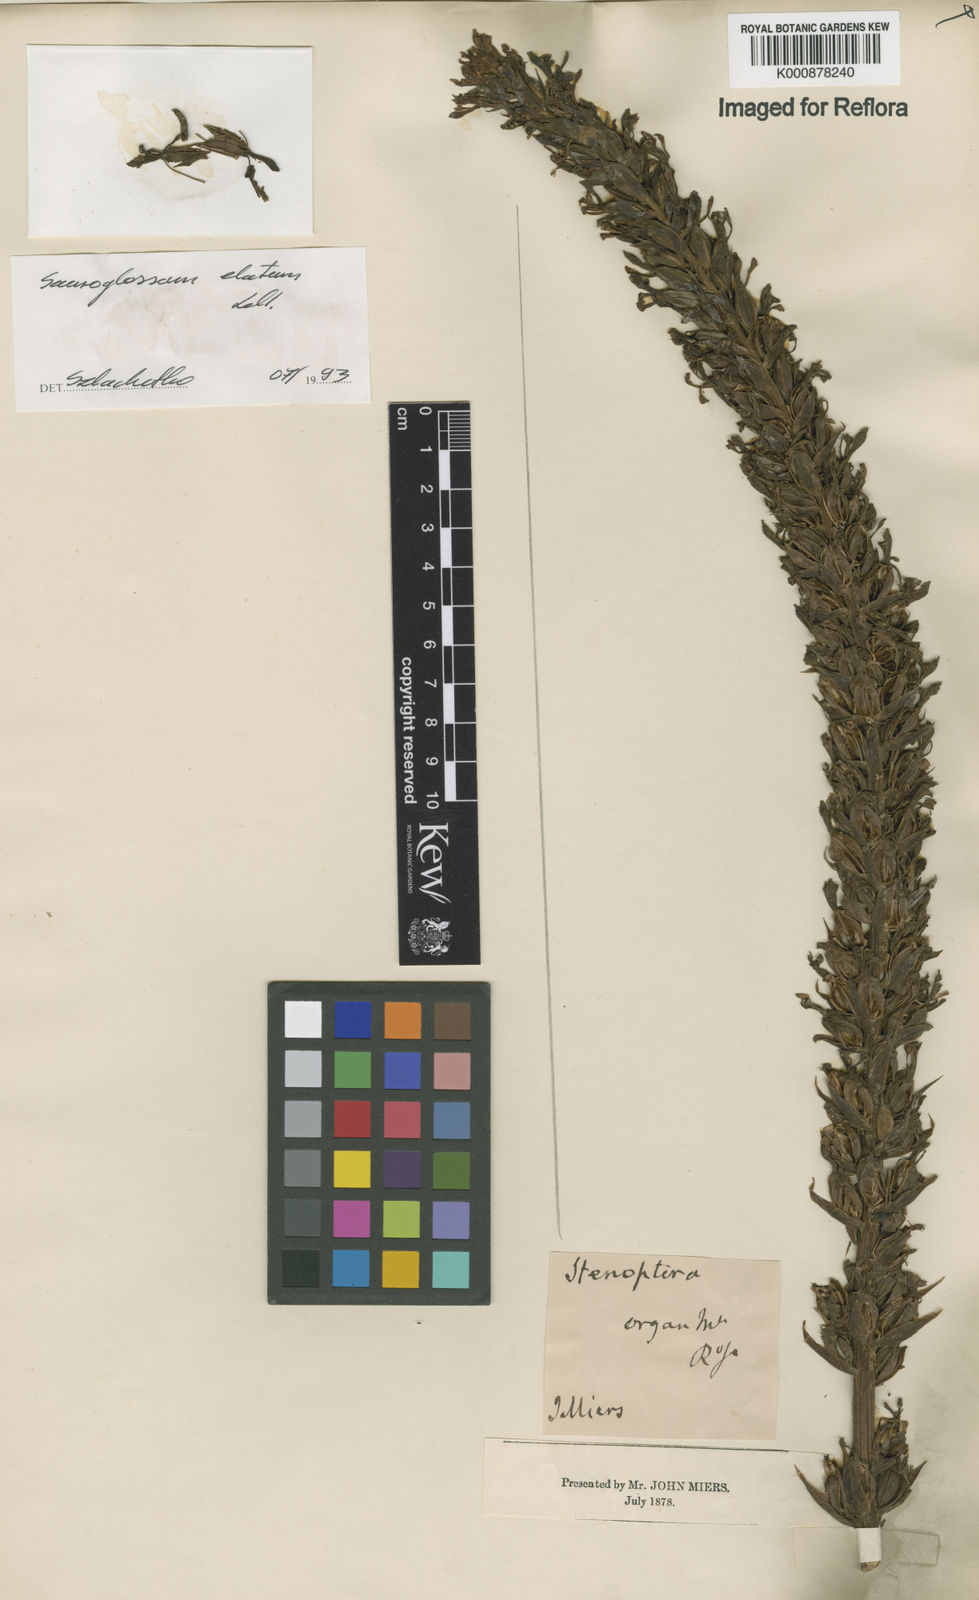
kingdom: Plantae
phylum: Tracheophyta
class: Liliopsida
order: Asparagales
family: Orchidaceae
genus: Sauroglossum
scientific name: Sauroglossum elatum
